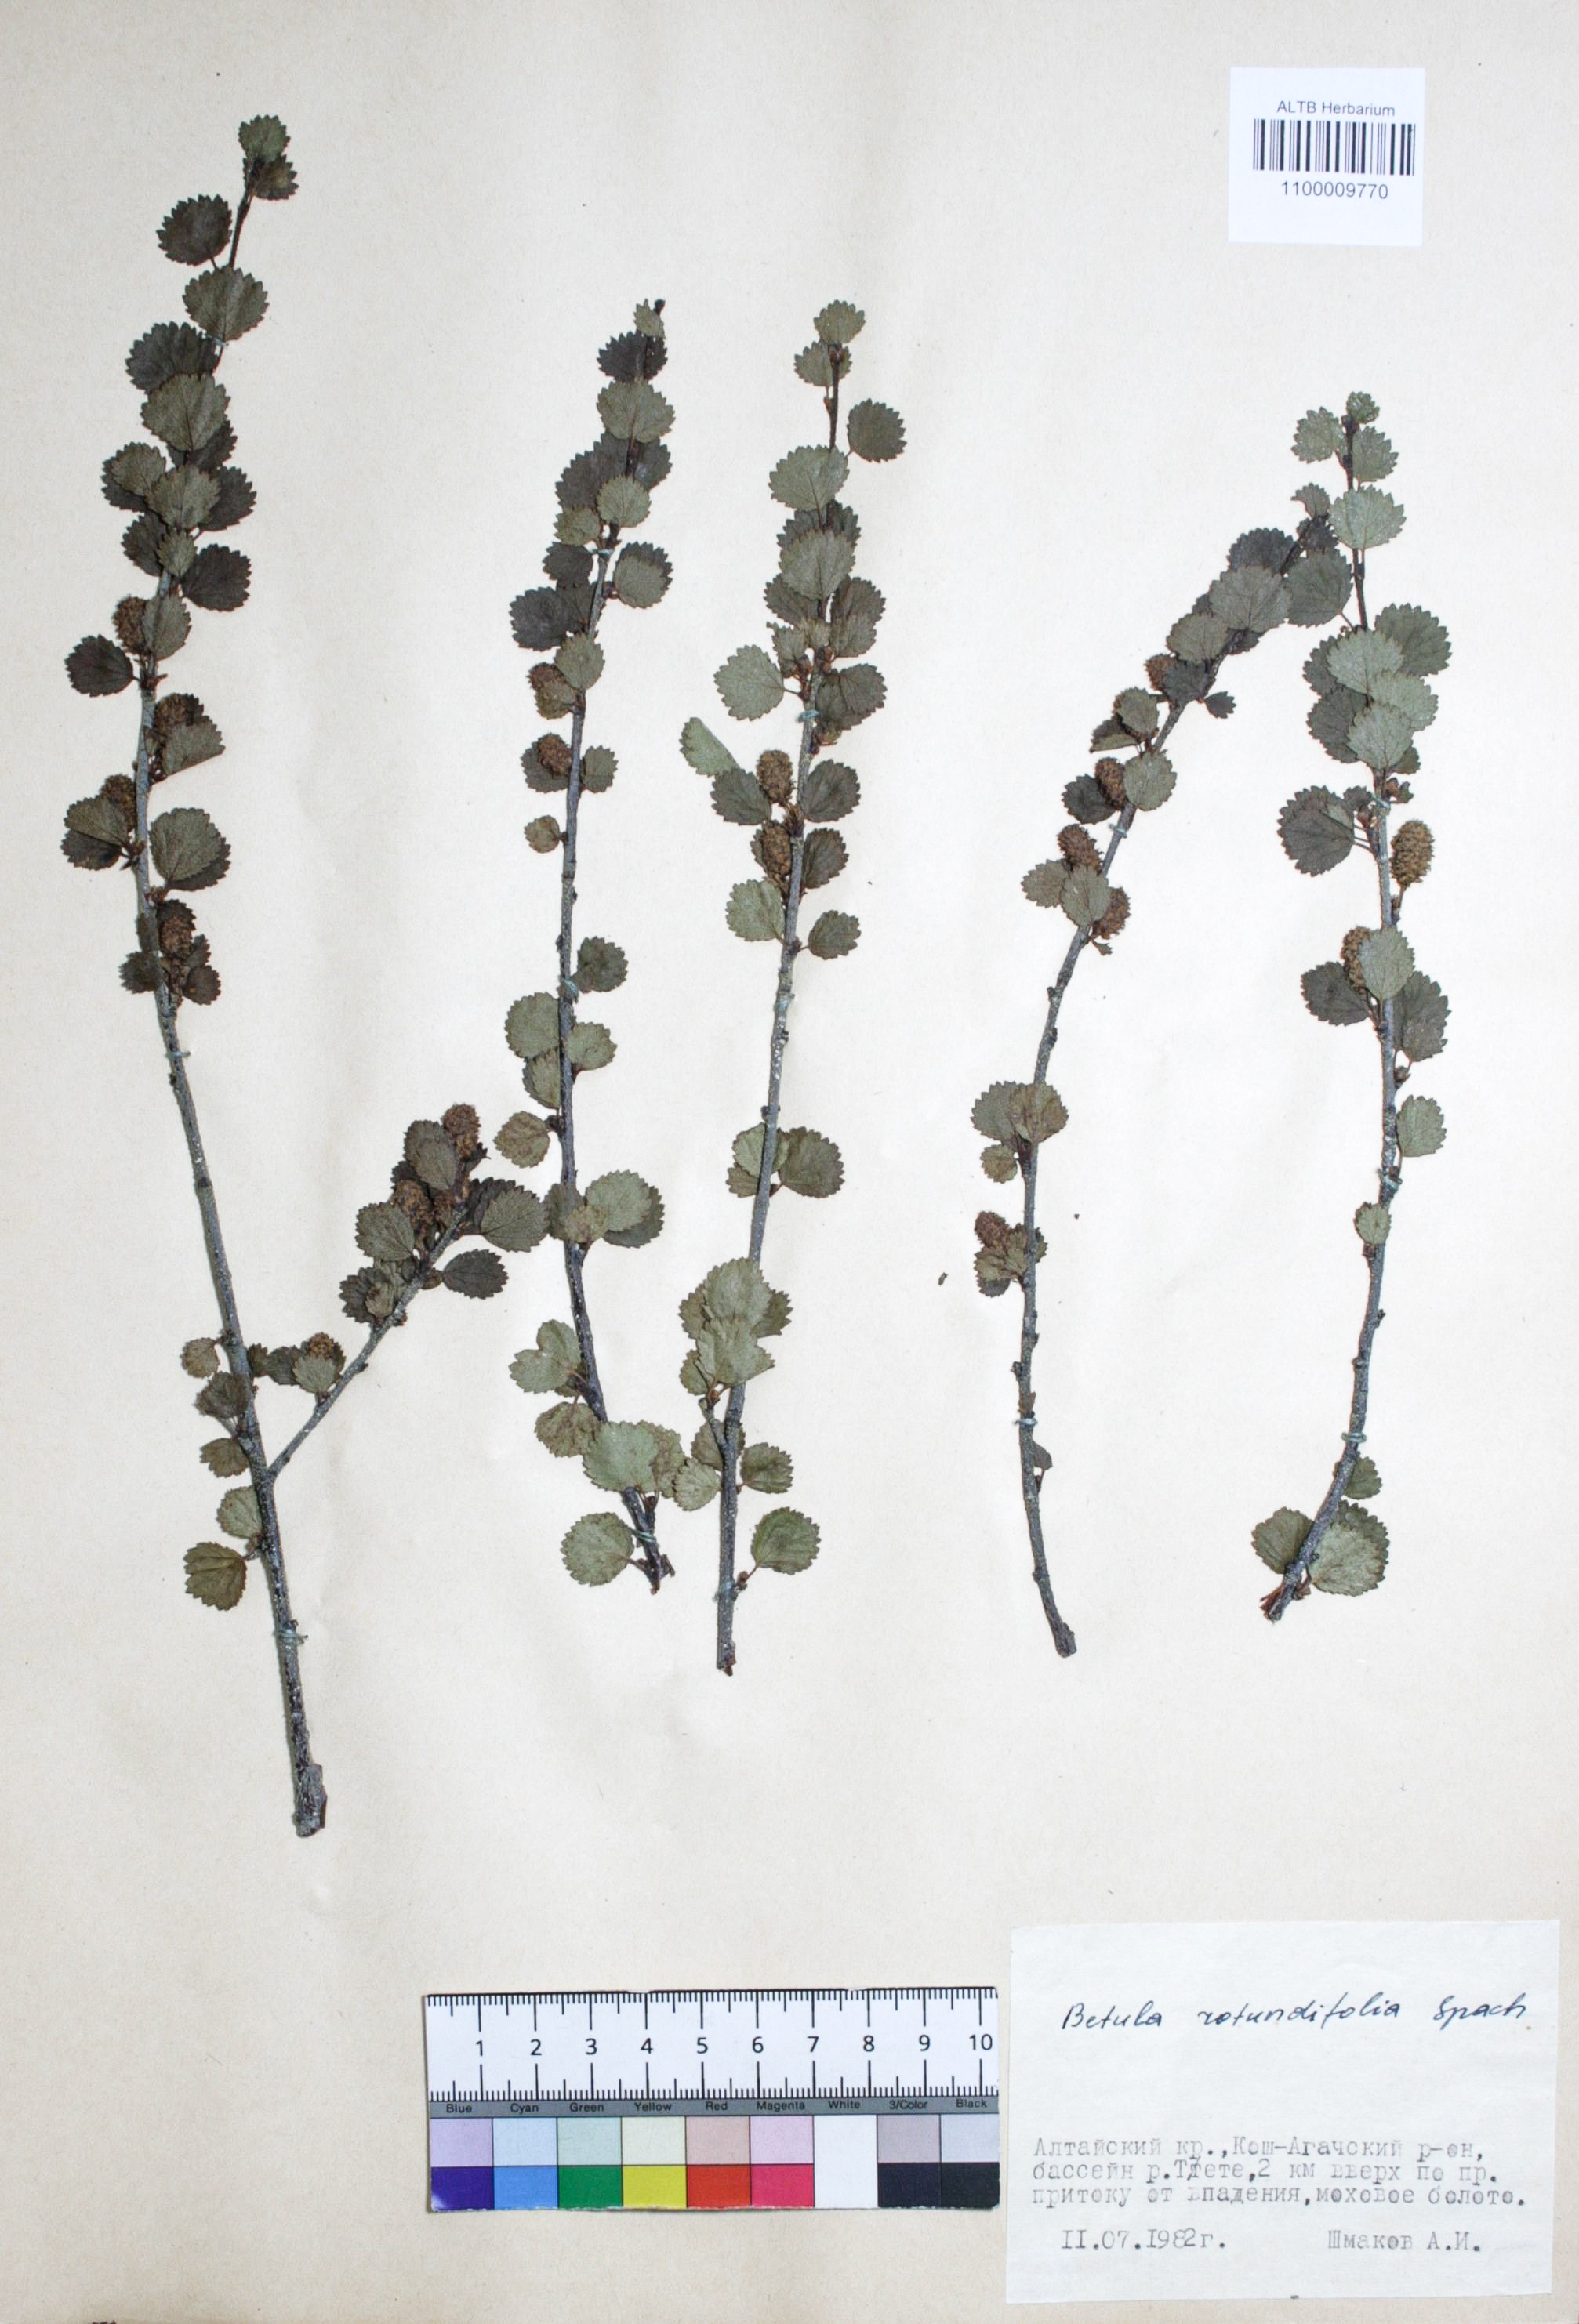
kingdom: Plantae
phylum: Tracheophyta
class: Magnoliopsida
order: Fagales
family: Betulaceae
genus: Betula
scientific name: Betula glandulosa
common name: Dwarf birch
